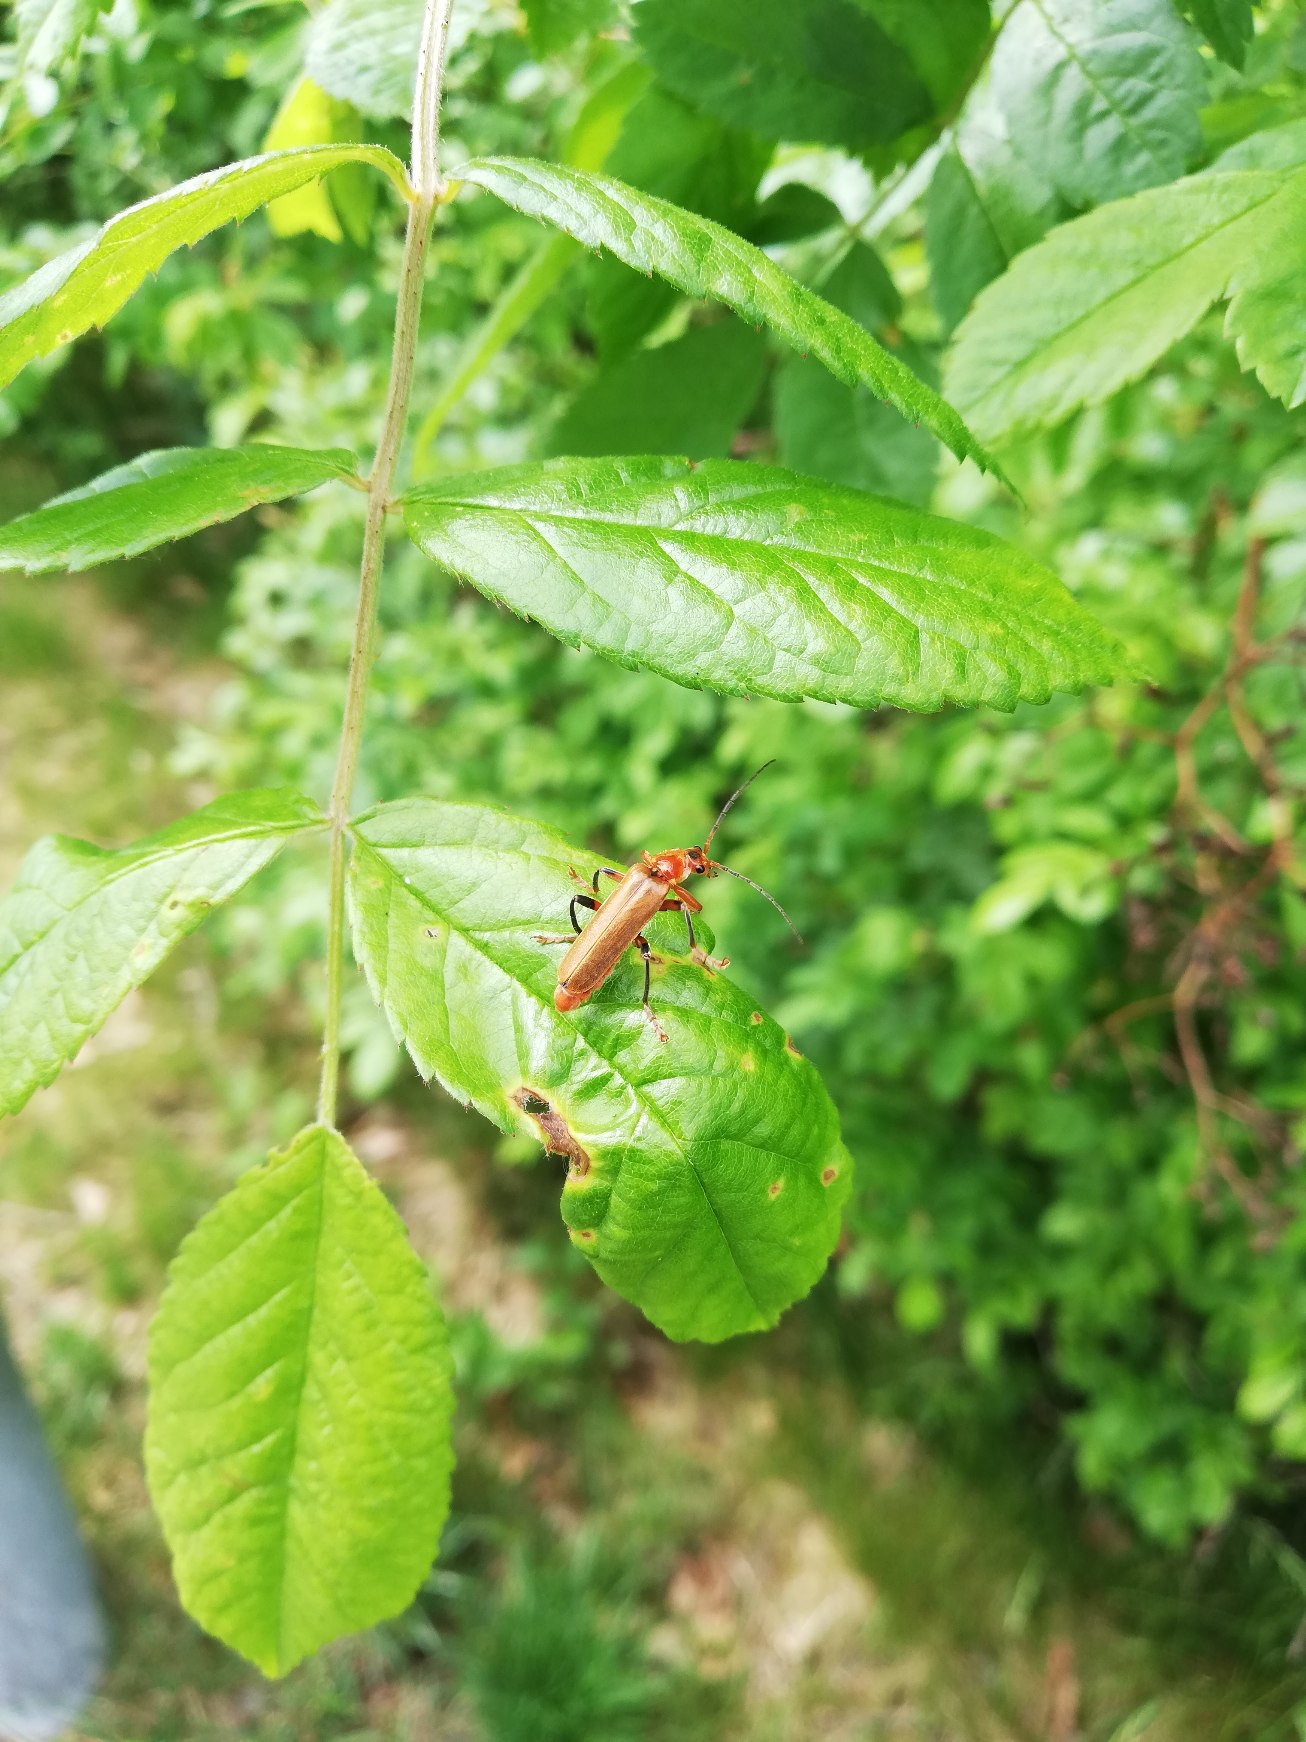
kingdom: Animalia
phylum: Arthropoda
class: Insecta
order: Coleoptera
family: Cantharidae
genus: Cantharis
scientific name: Cantharis livida
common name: Gul blødvinge
